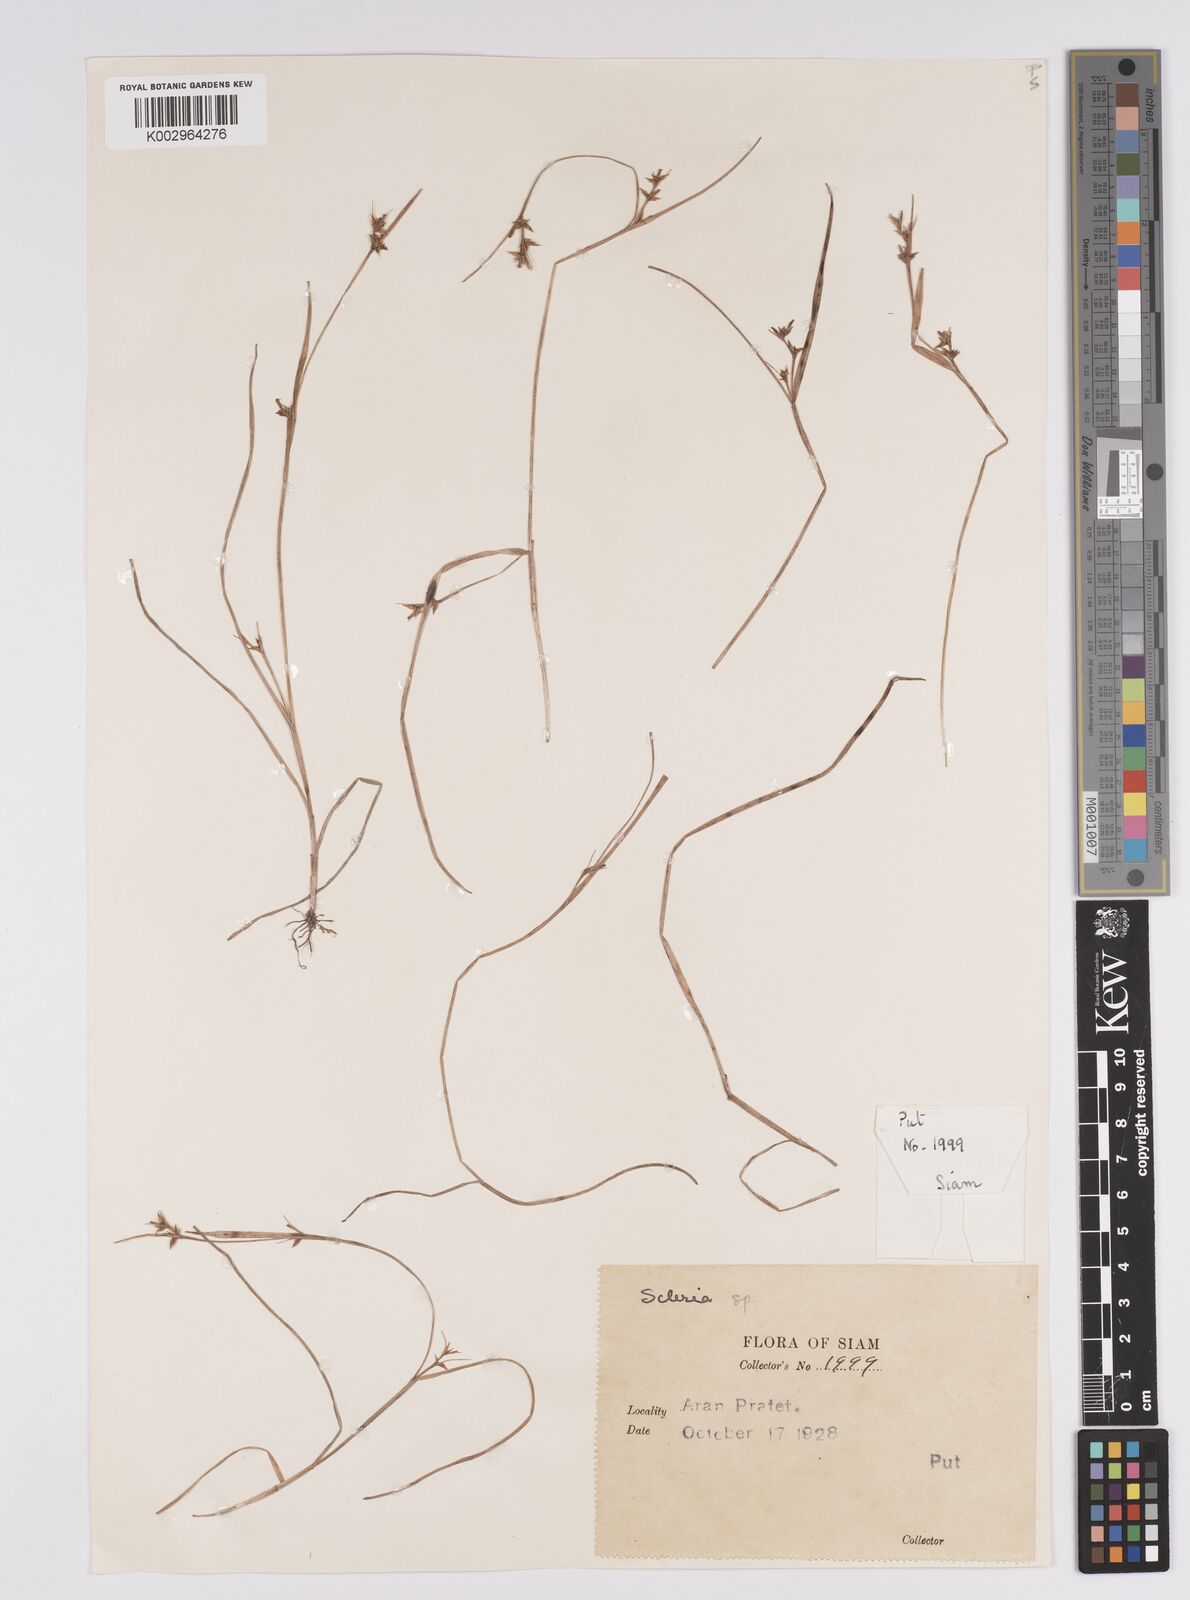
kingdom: Plantae
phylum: Tracheophyta
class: Liliopsida
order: Poales
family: Cyperaceae
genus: Scleria
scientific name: Scleria
